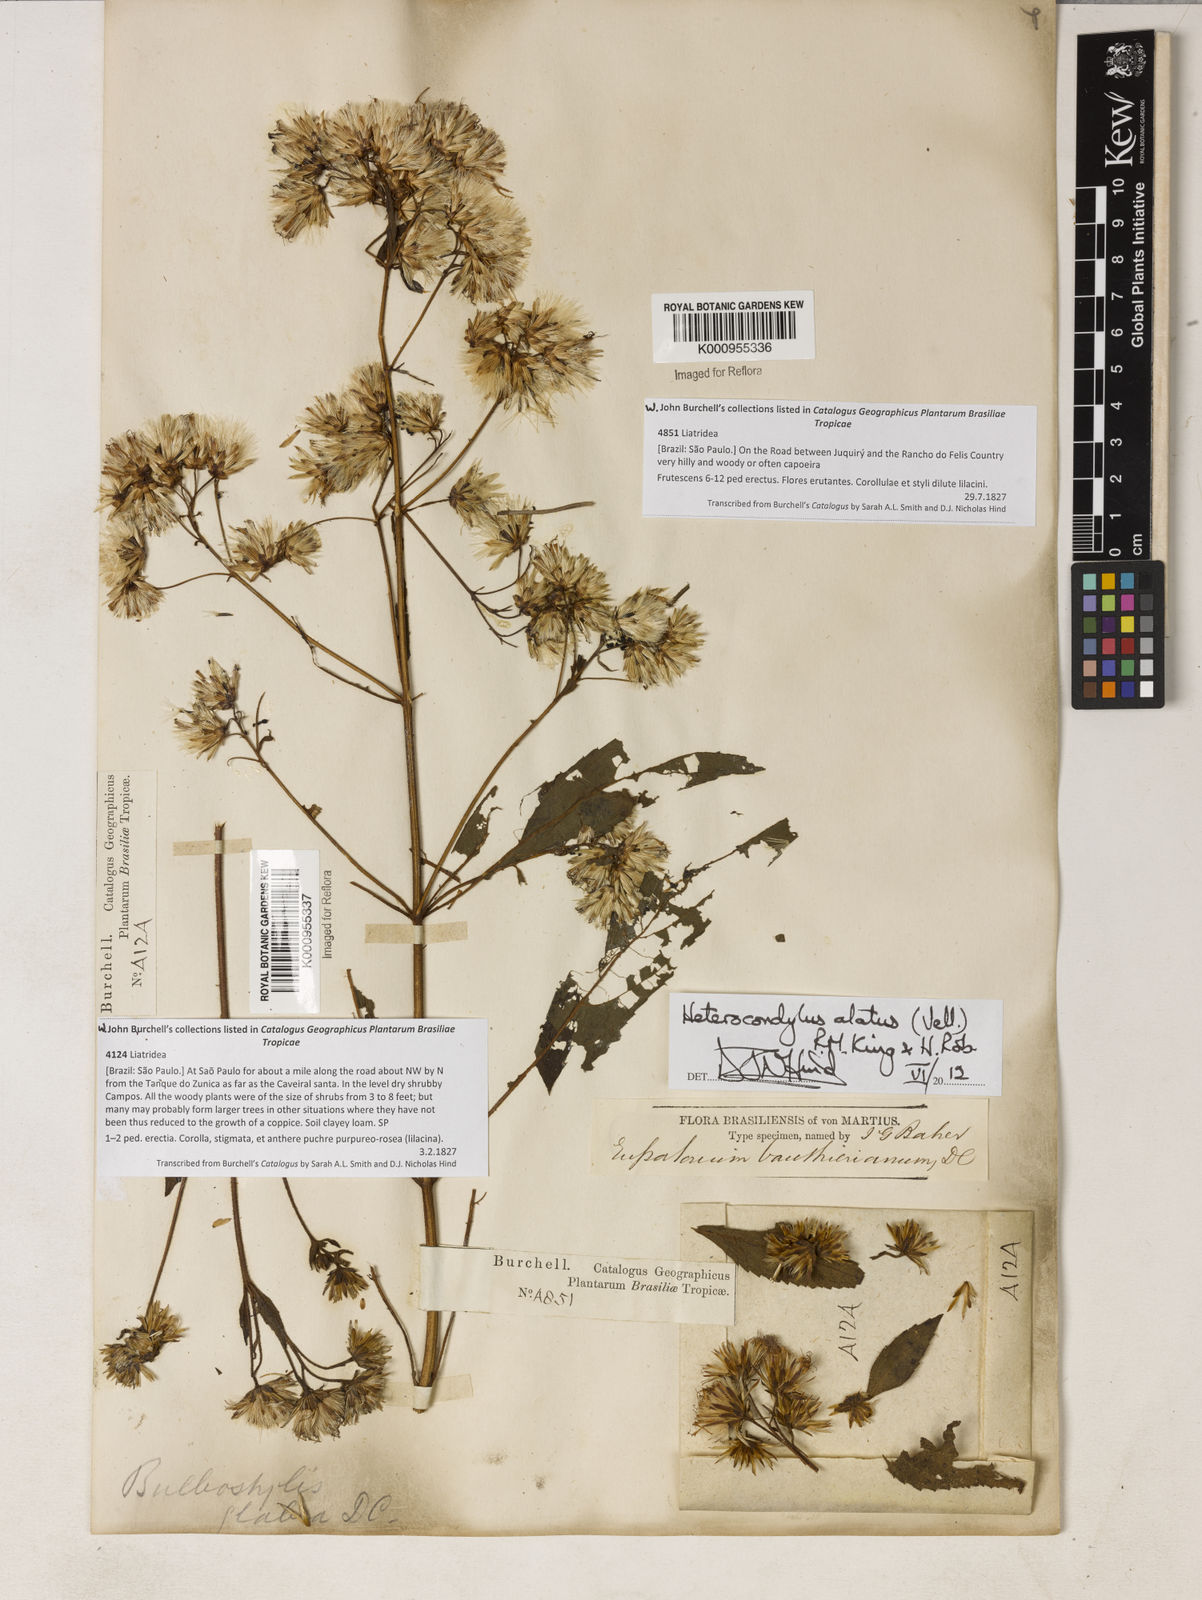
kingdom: Plantae
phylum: Tracheophyta
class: Magnoliopsida
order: Asterales
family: Asteraceae
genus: Heterocondylus
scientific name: Heterocondylus alatus
